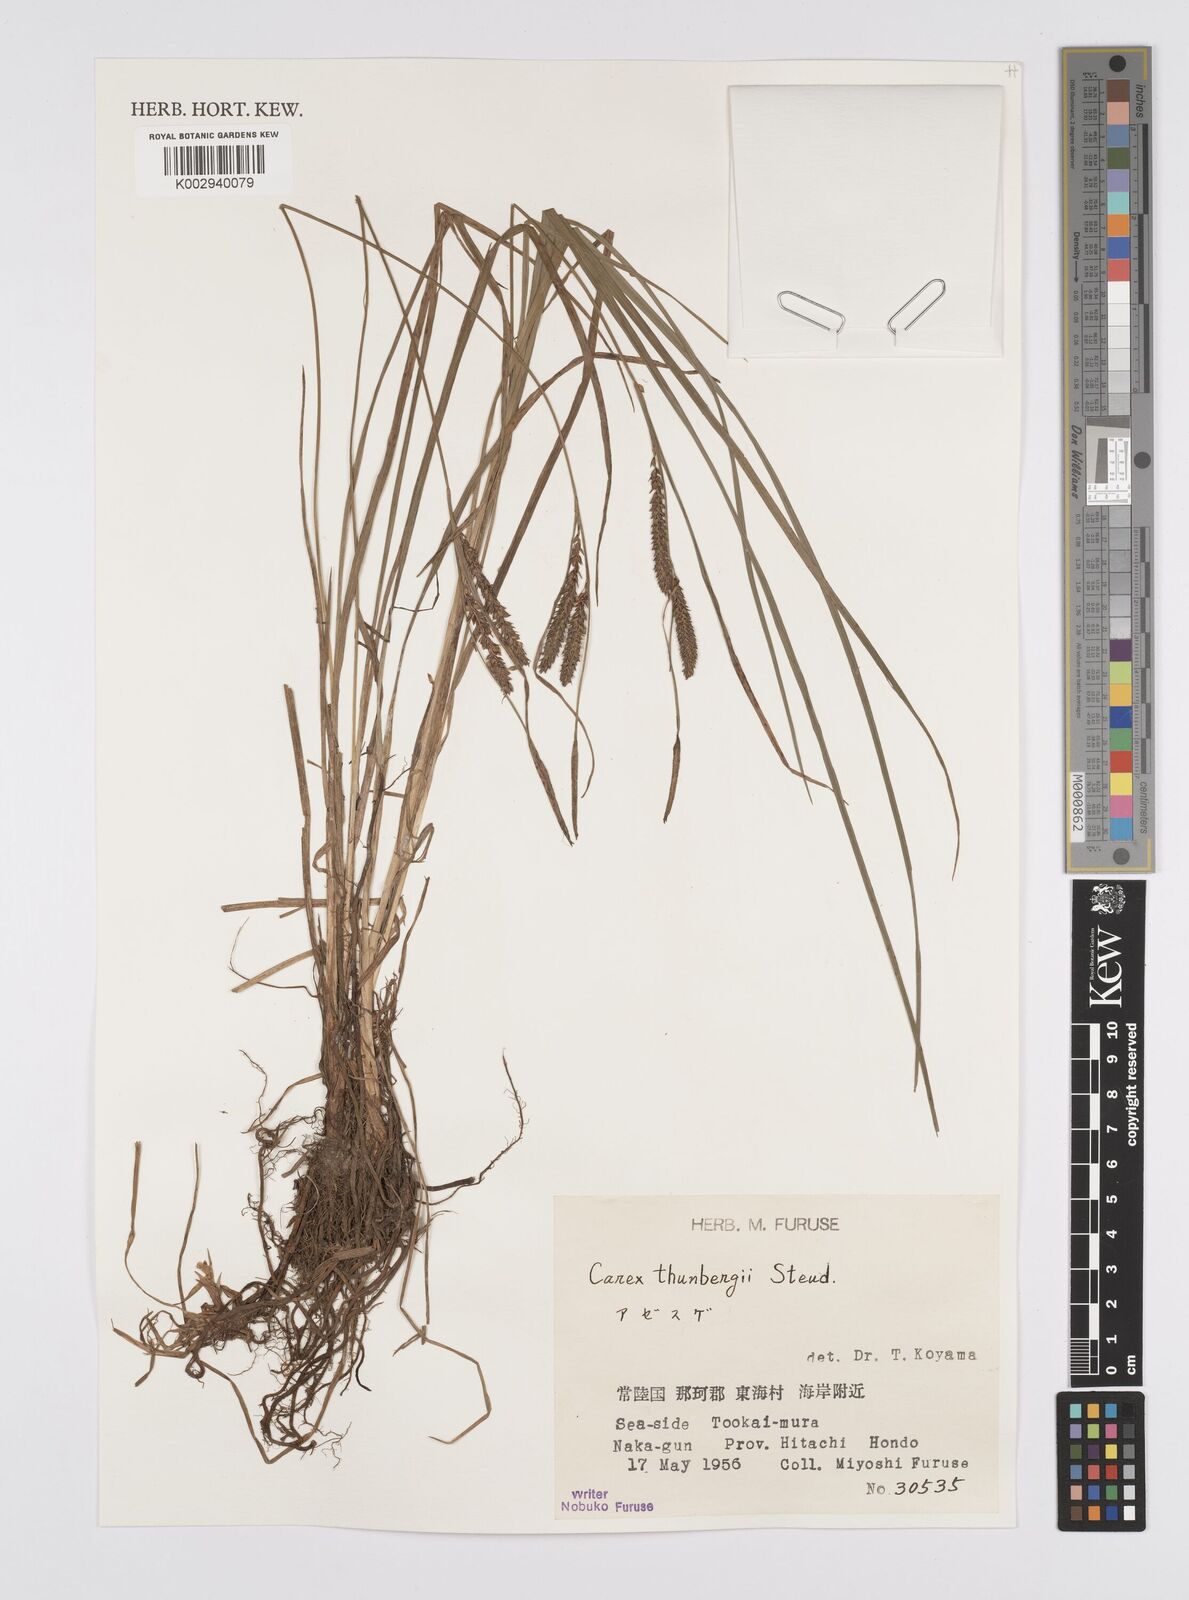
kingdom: Plantae
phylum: Tracheophyta
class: Liliopsida
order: Poales
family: Cyperaceae
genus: Carex
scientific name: Carex thunbergii
